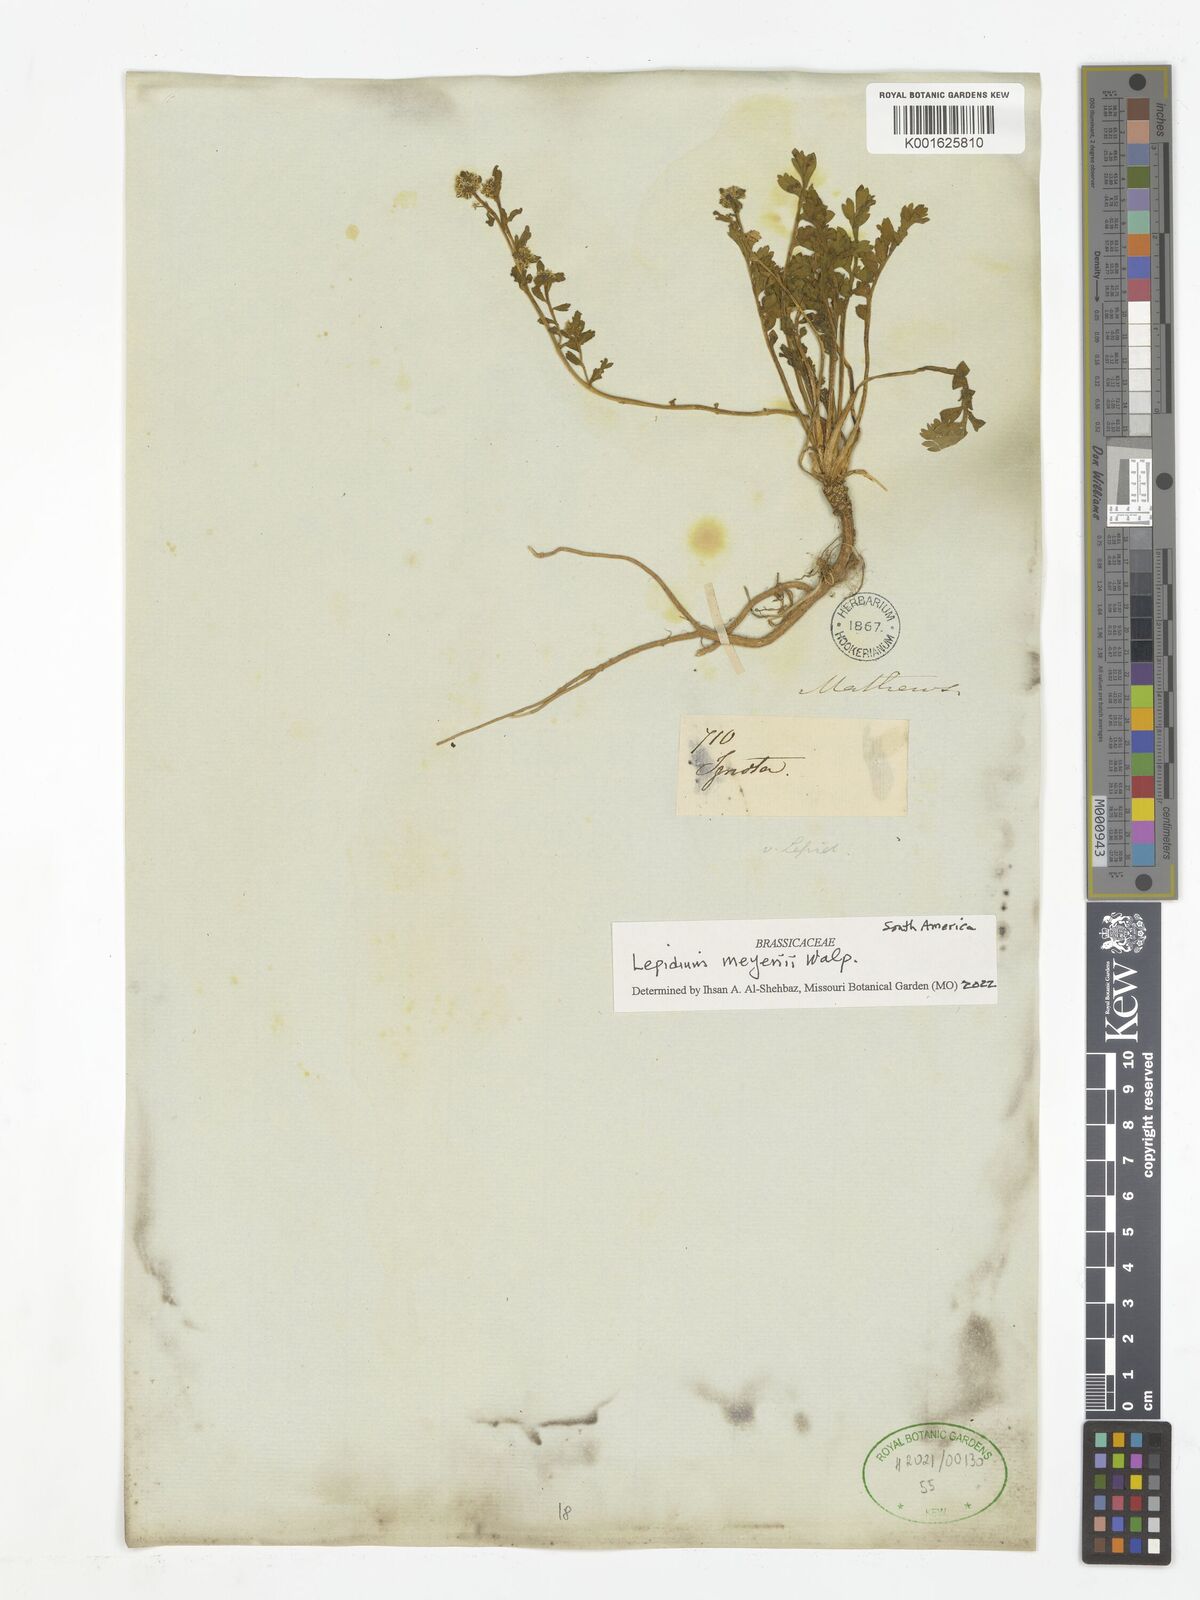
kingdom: Plantae
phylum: Tracheophyta
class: Magnoliopsida
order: Brassicales
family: Brassicaceae
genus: Lepidium
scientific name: Lepidium meyenii
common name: Peruvian-ginseng
